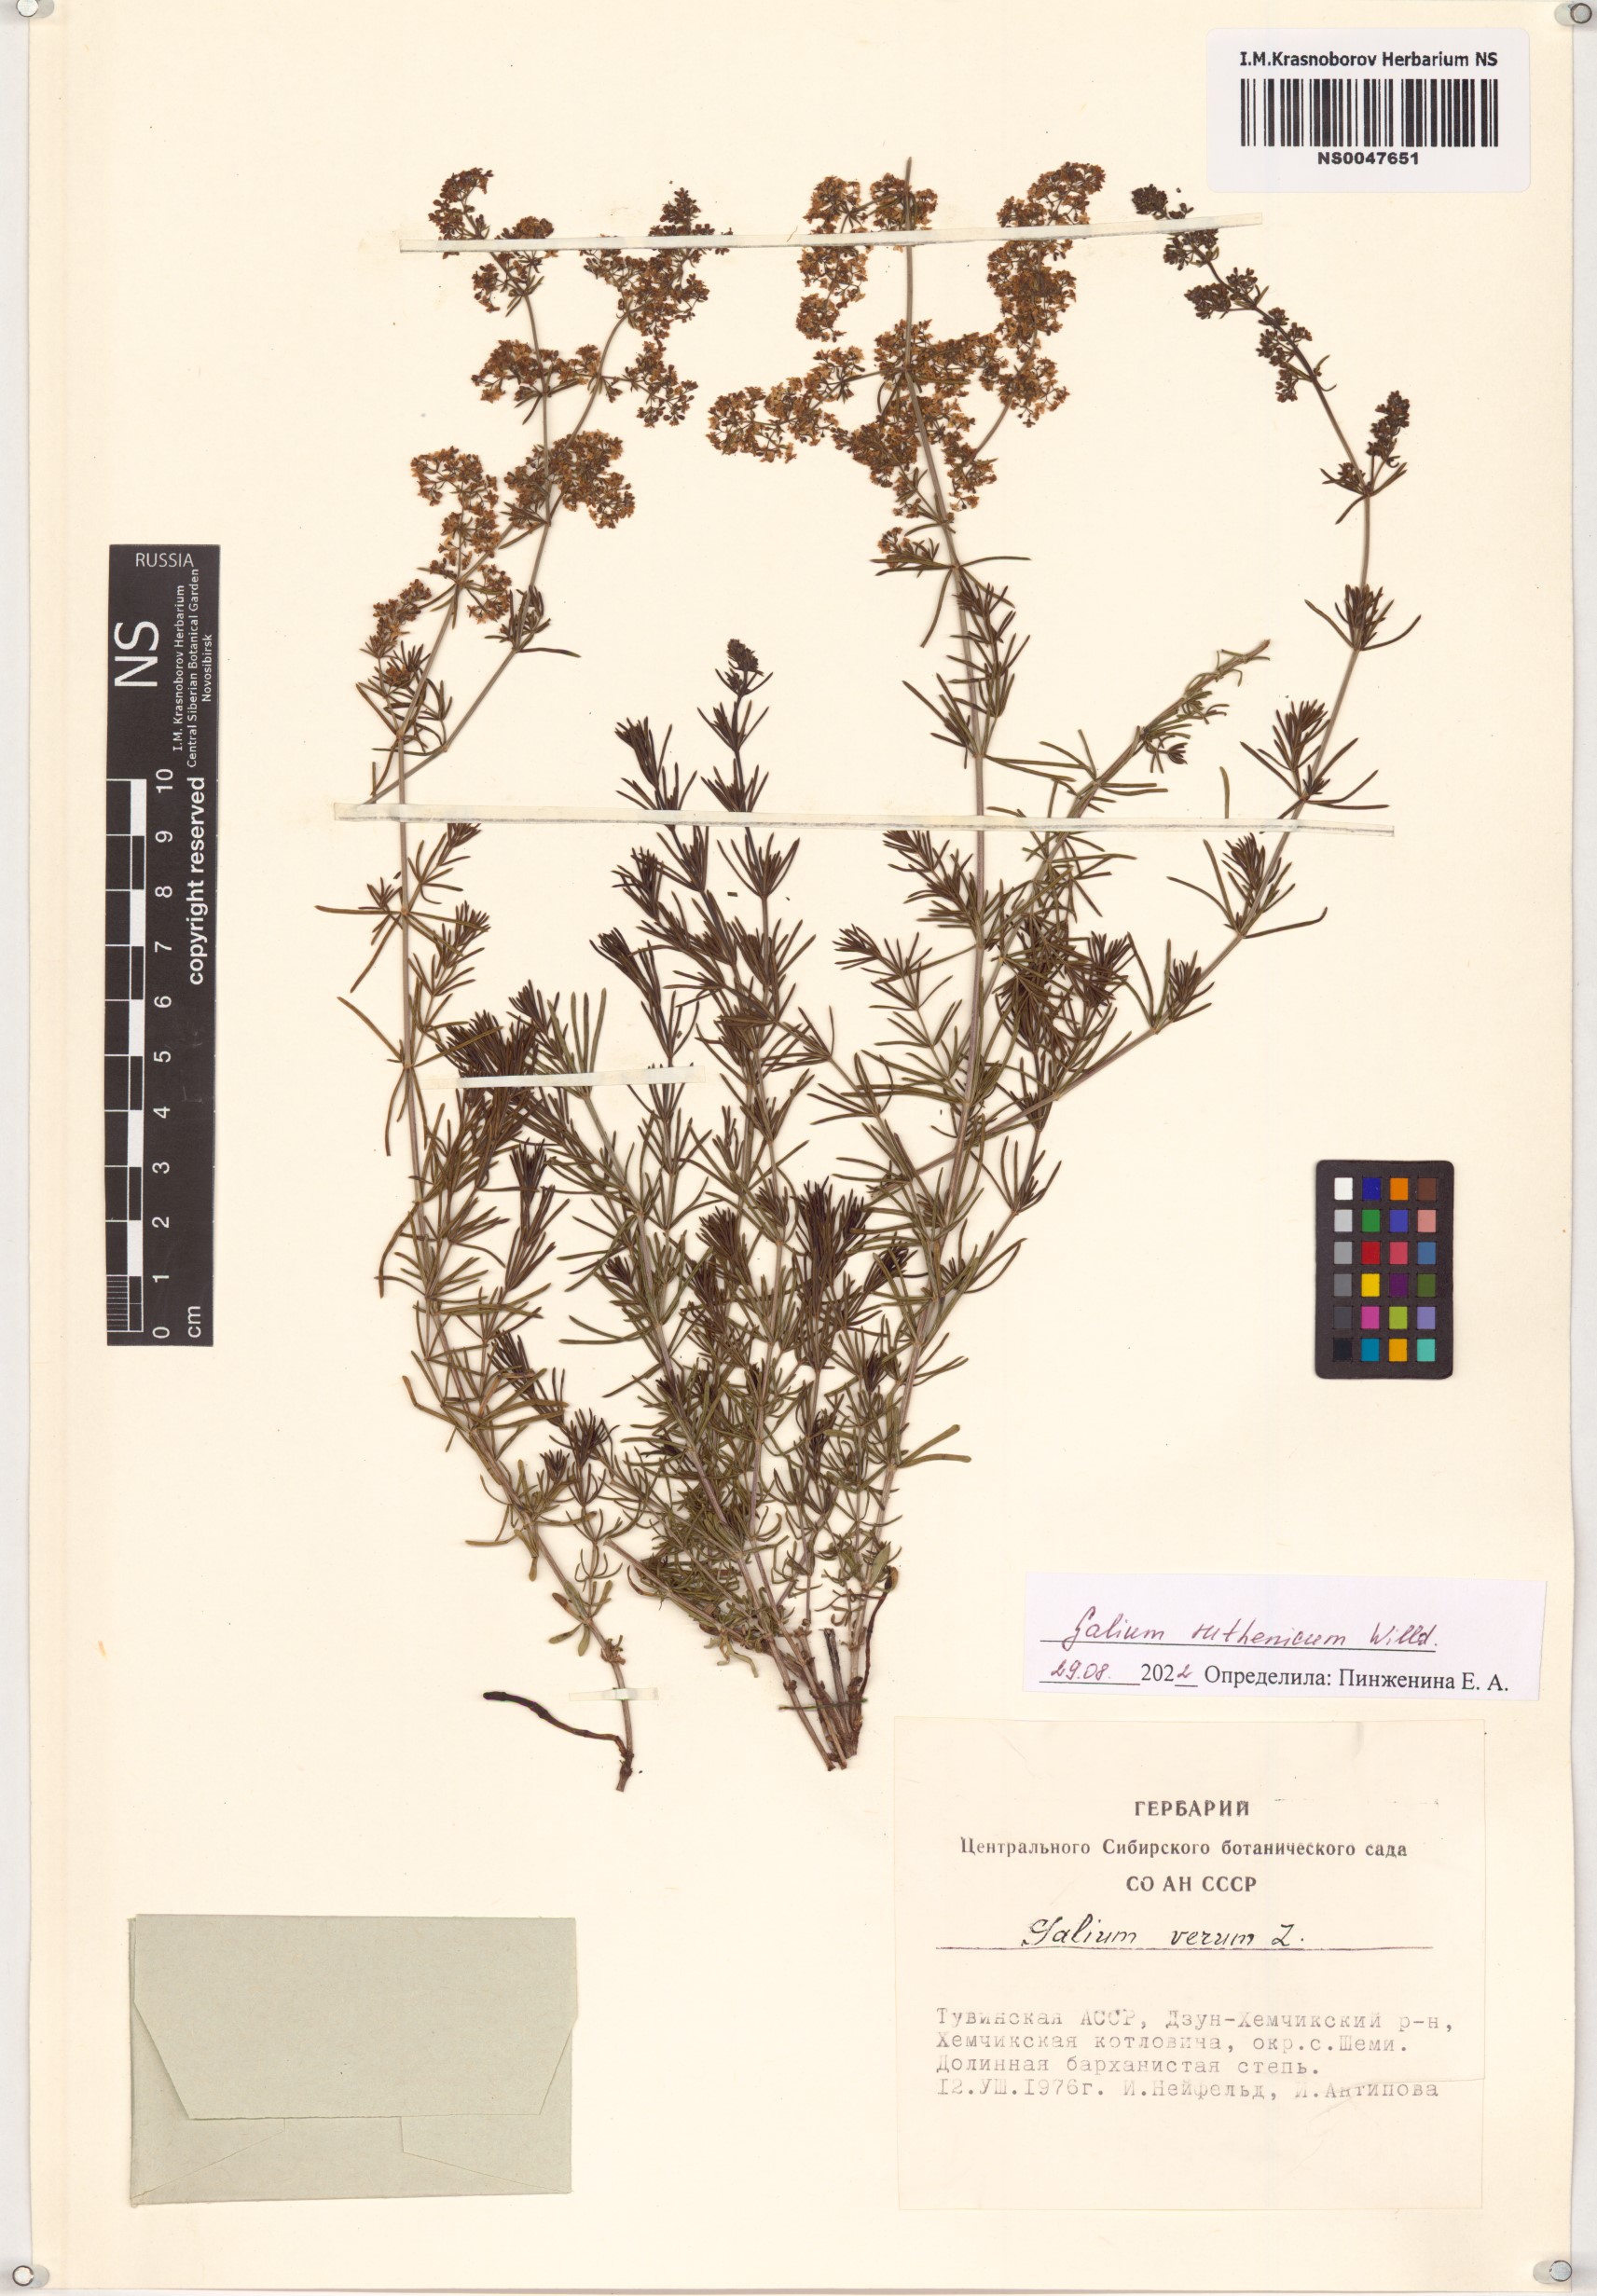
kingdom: Plantae
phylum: Tracheophyta
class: Magnoliopsida
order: Gentianales
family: Rubiaceae
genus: Galium
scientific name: Galium verum
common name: Lady's bedstraw
